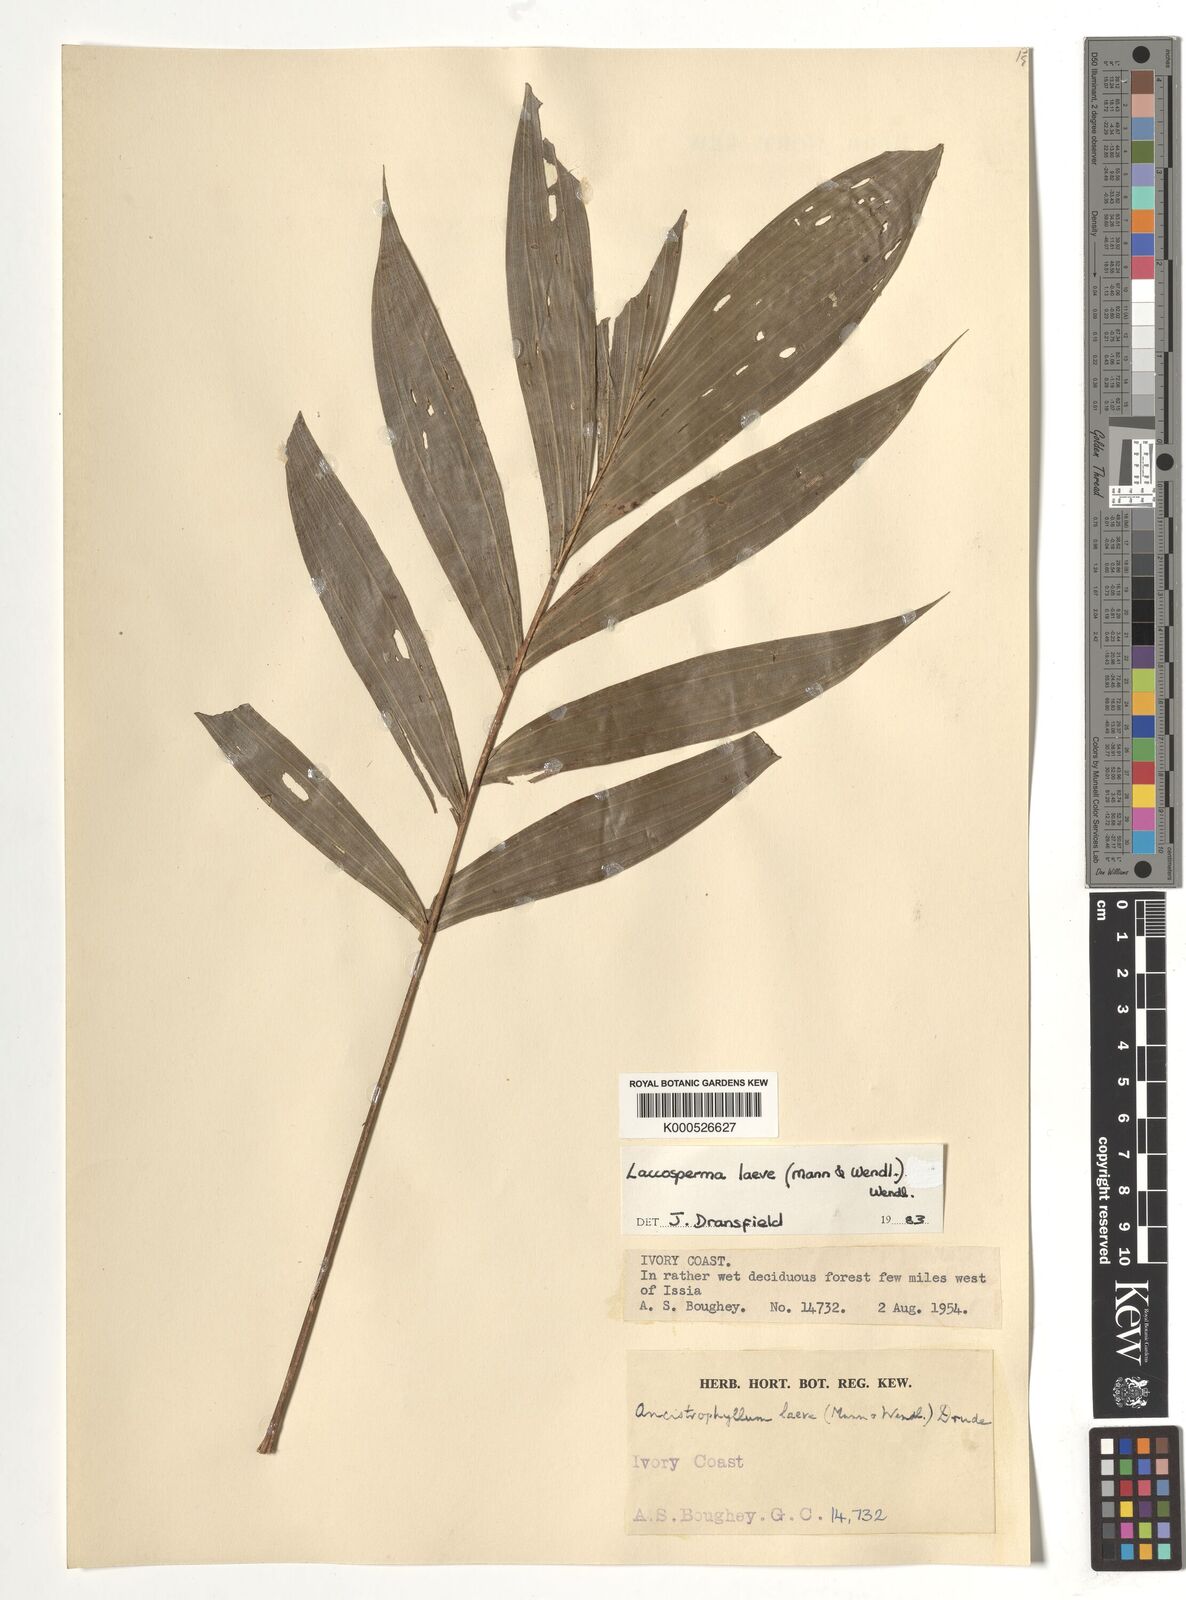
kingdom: Plantae
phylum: Tracheophyta
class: Liliopsida
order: Arecales
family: Arecaceae
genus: Laccosperma
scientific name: Laccosperma laeve
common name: Rattan
